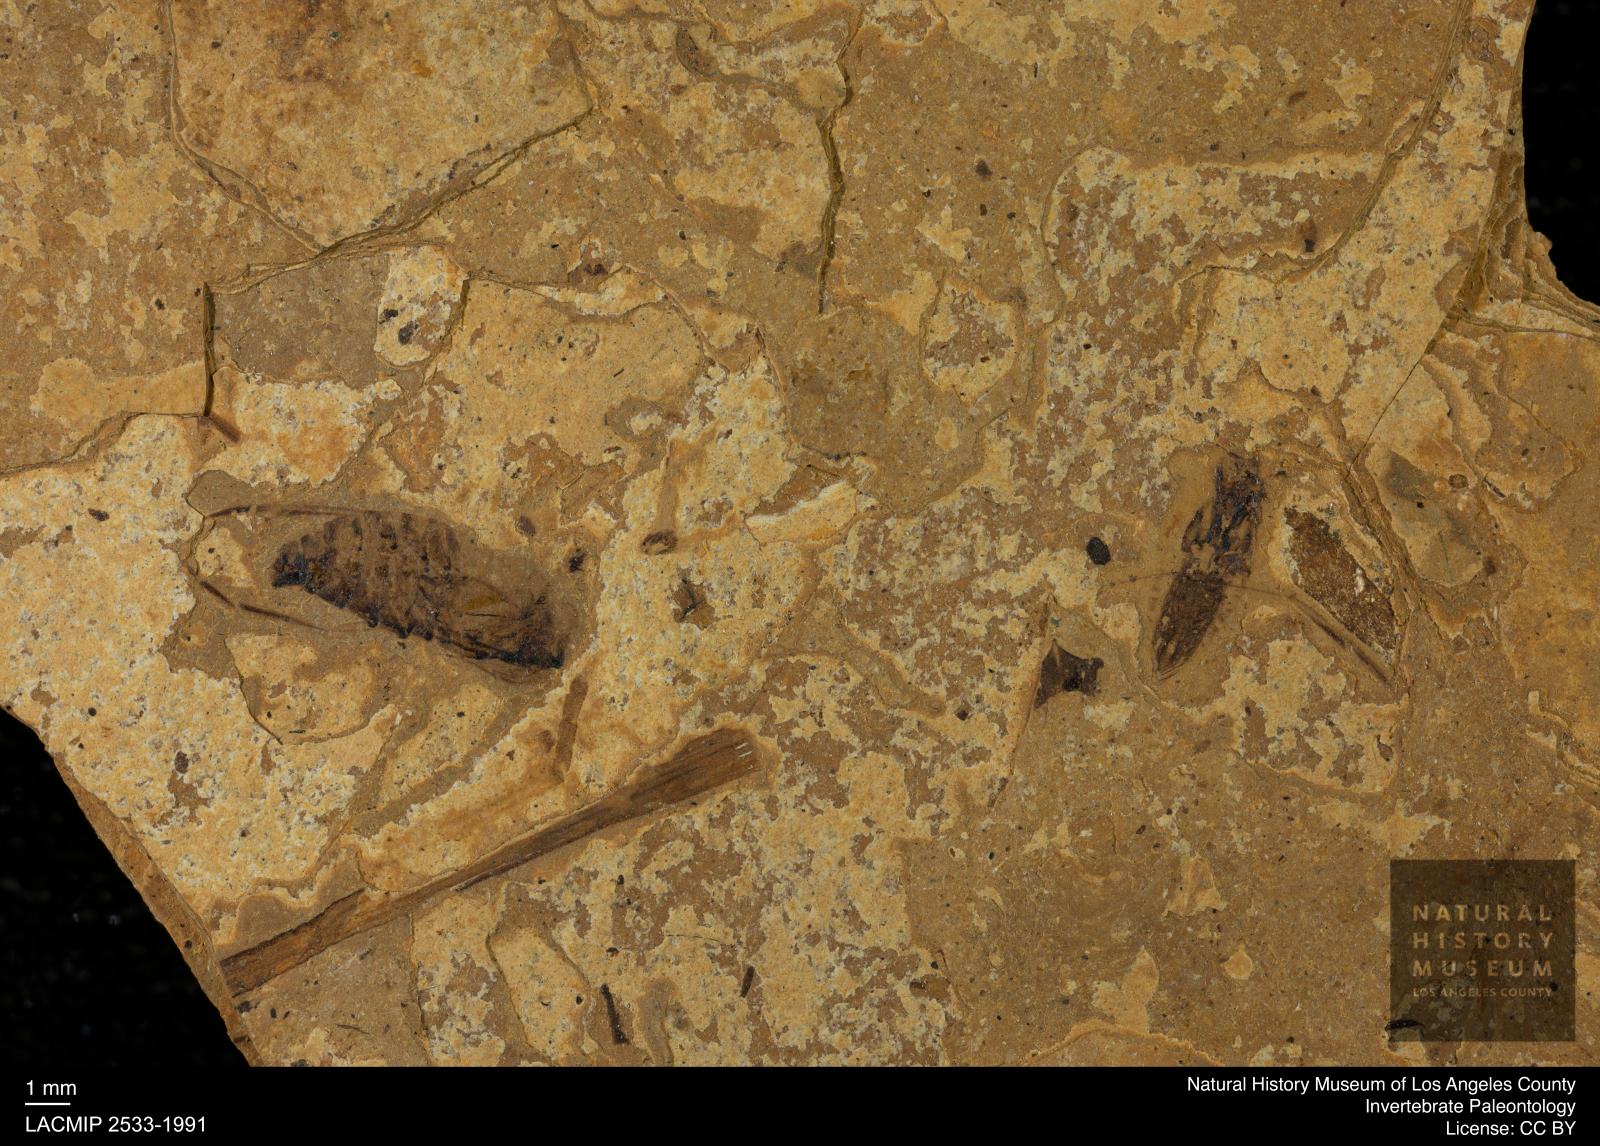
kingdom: Animalia
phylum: Arthropoda
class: Insecta
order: Hemiptera
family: Notonectidae
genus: Notonecta
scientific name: Notonecta
